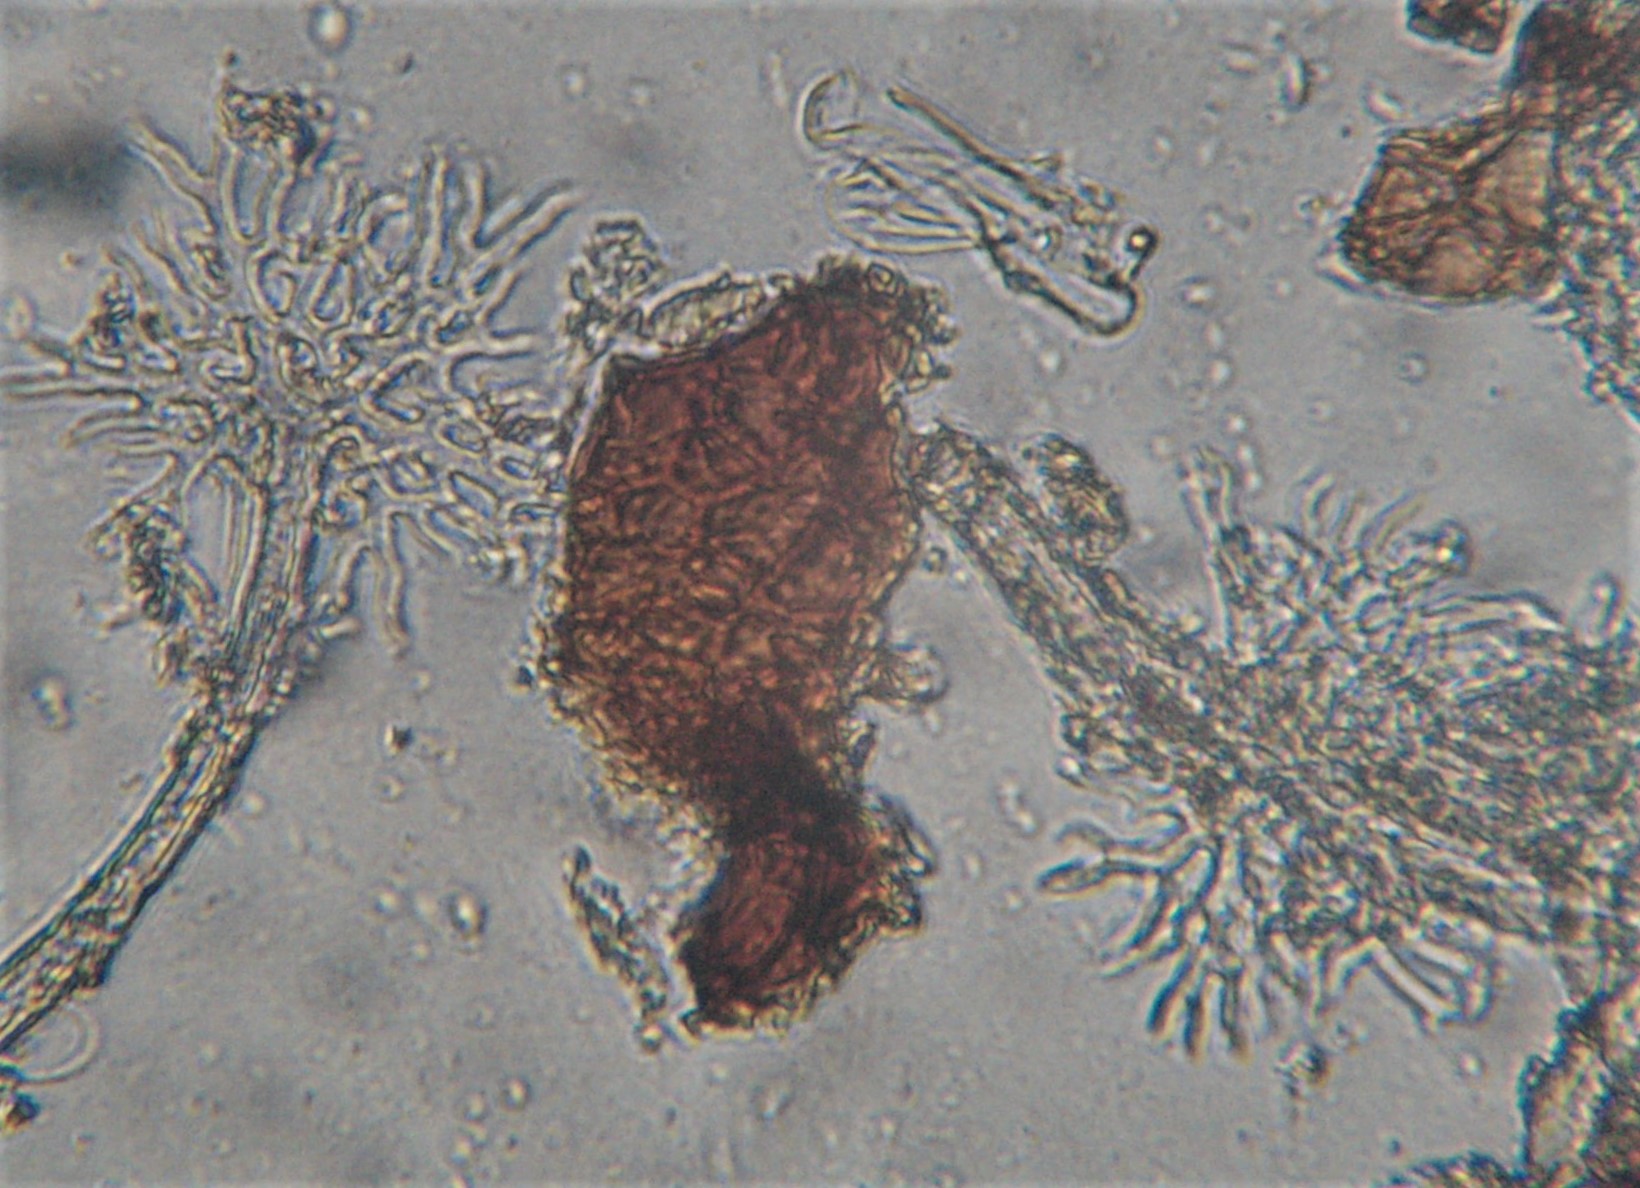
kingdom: Fungi
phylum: Ascomycota
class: Leotiomycetes
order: Helotiales
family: Erysiphaceae
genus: Erysiphe
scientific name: Erysiphe palczewskii
